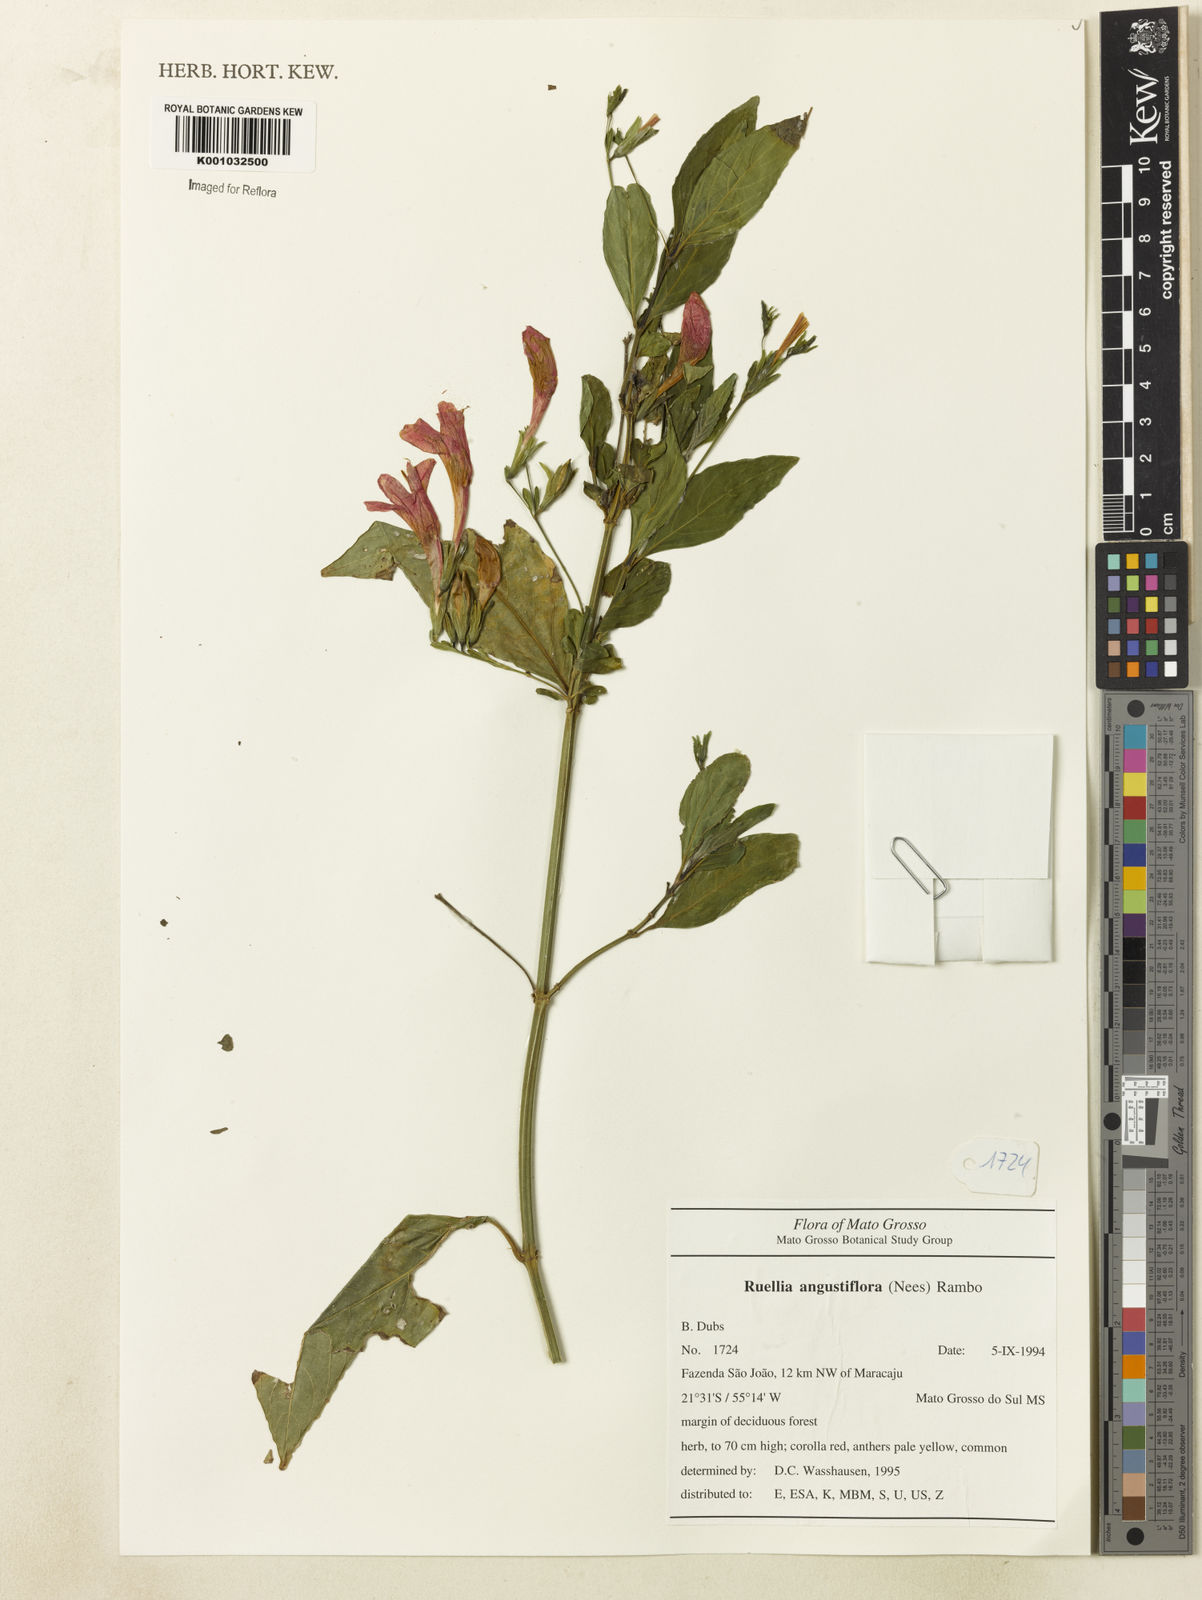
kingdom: Plantae
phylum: Tracheophyta
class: Magnoliopsida
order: Lamiales
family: Acanthaceae
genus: Ruellia
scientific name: Ruellia angustiflora
